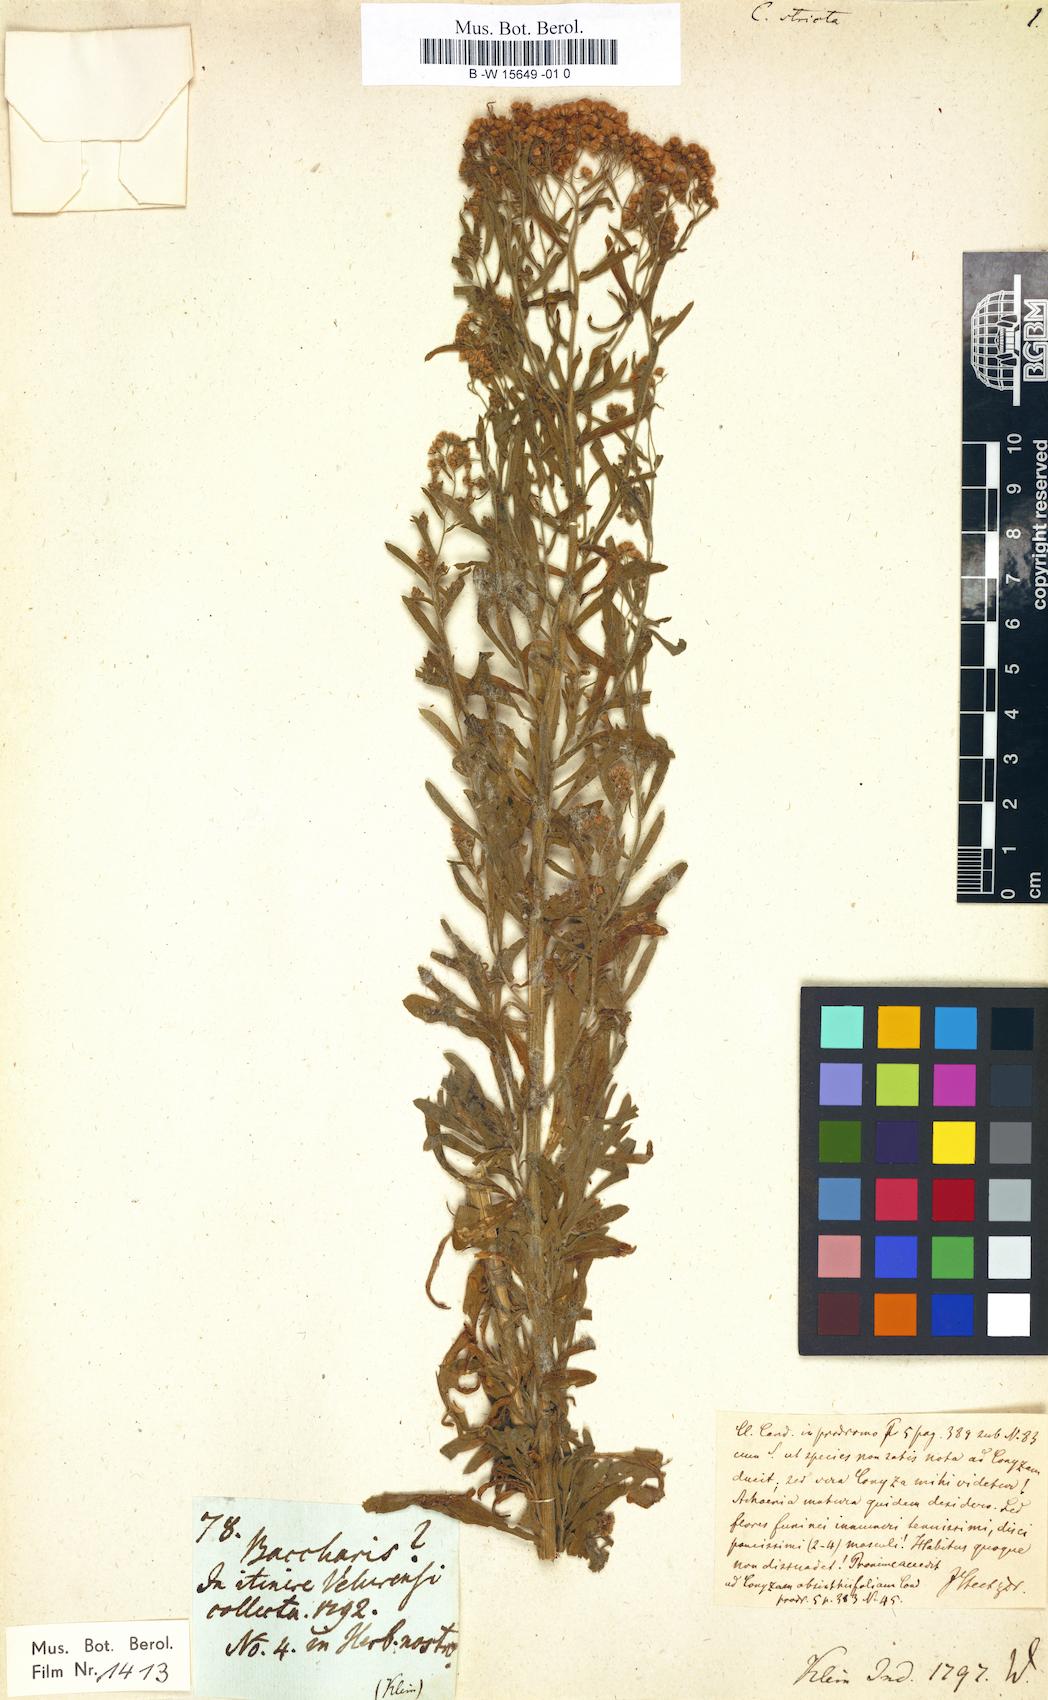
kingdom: Plantae
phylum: Tracheophyta
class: Magnoliopsida
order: Asterales
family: Asteraceae
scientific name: Asteraceae
